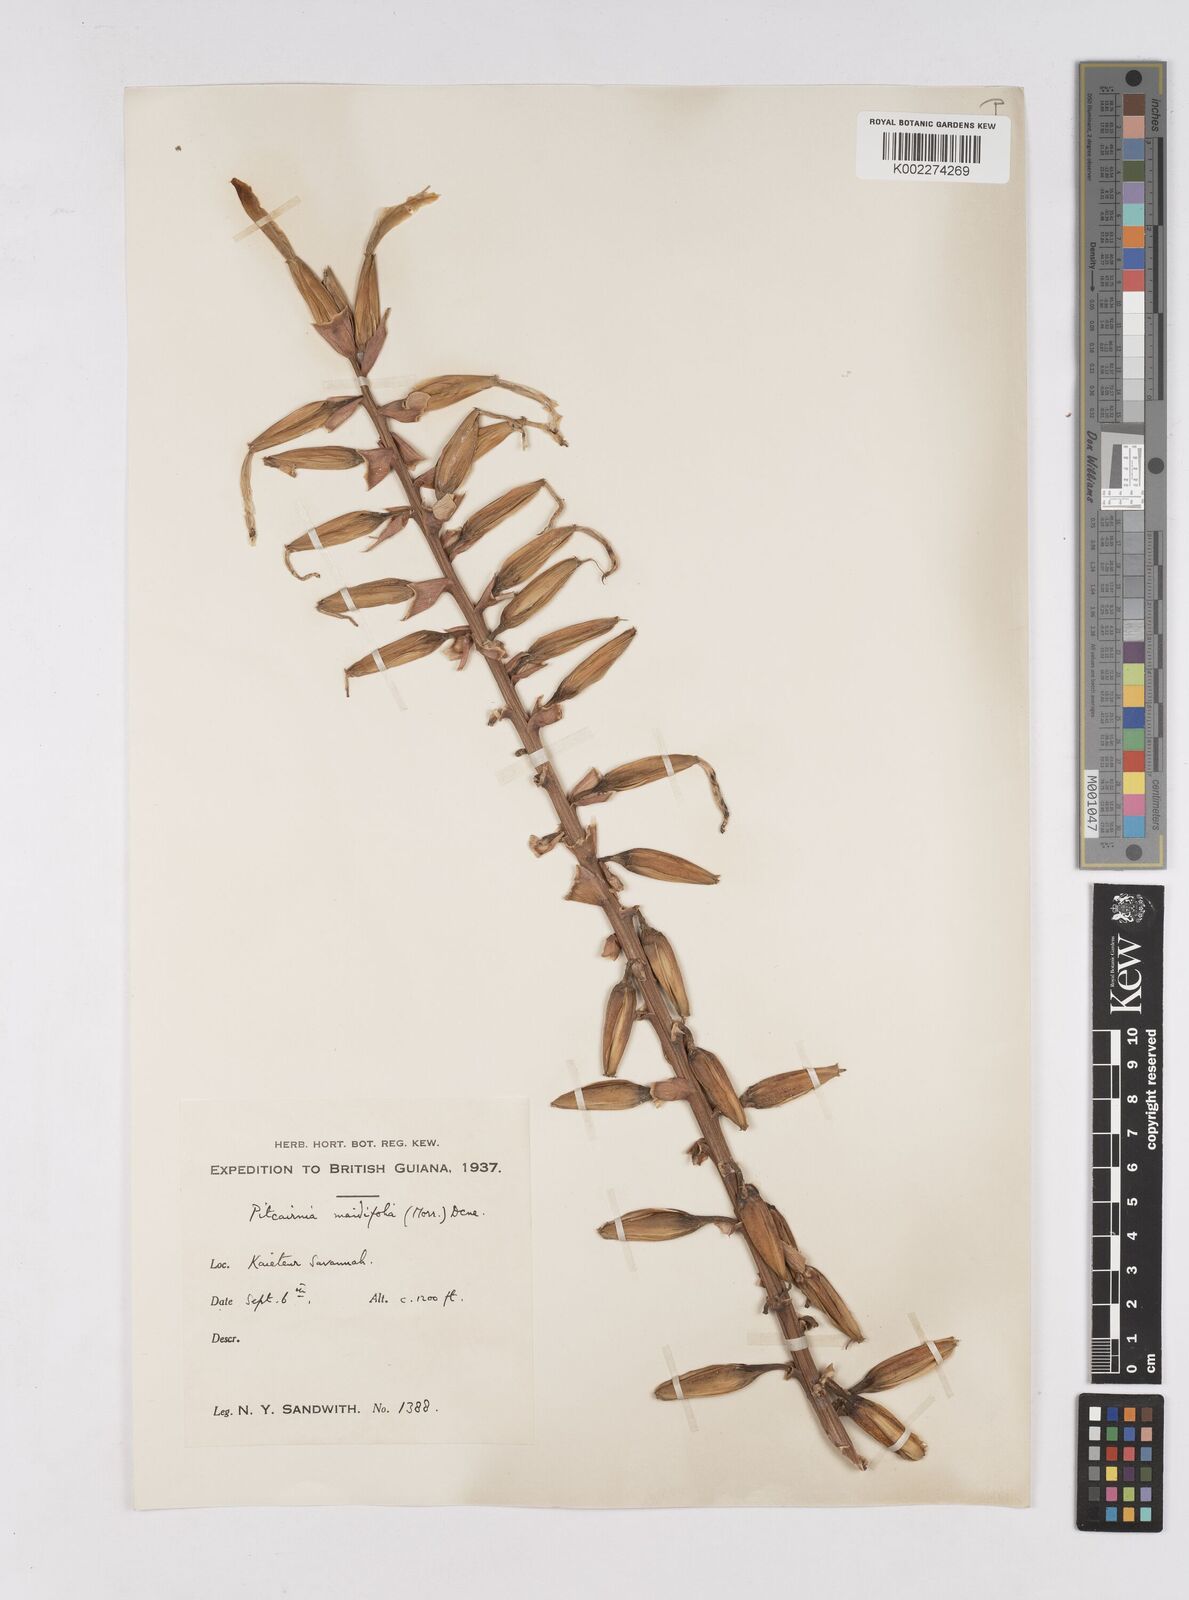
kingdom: Plantae
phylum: Tracheophyta
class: Liliopsida
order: Poales
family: Bromeliaceae
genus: Pitcairnia
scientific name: Pitcairnia maidifolia
